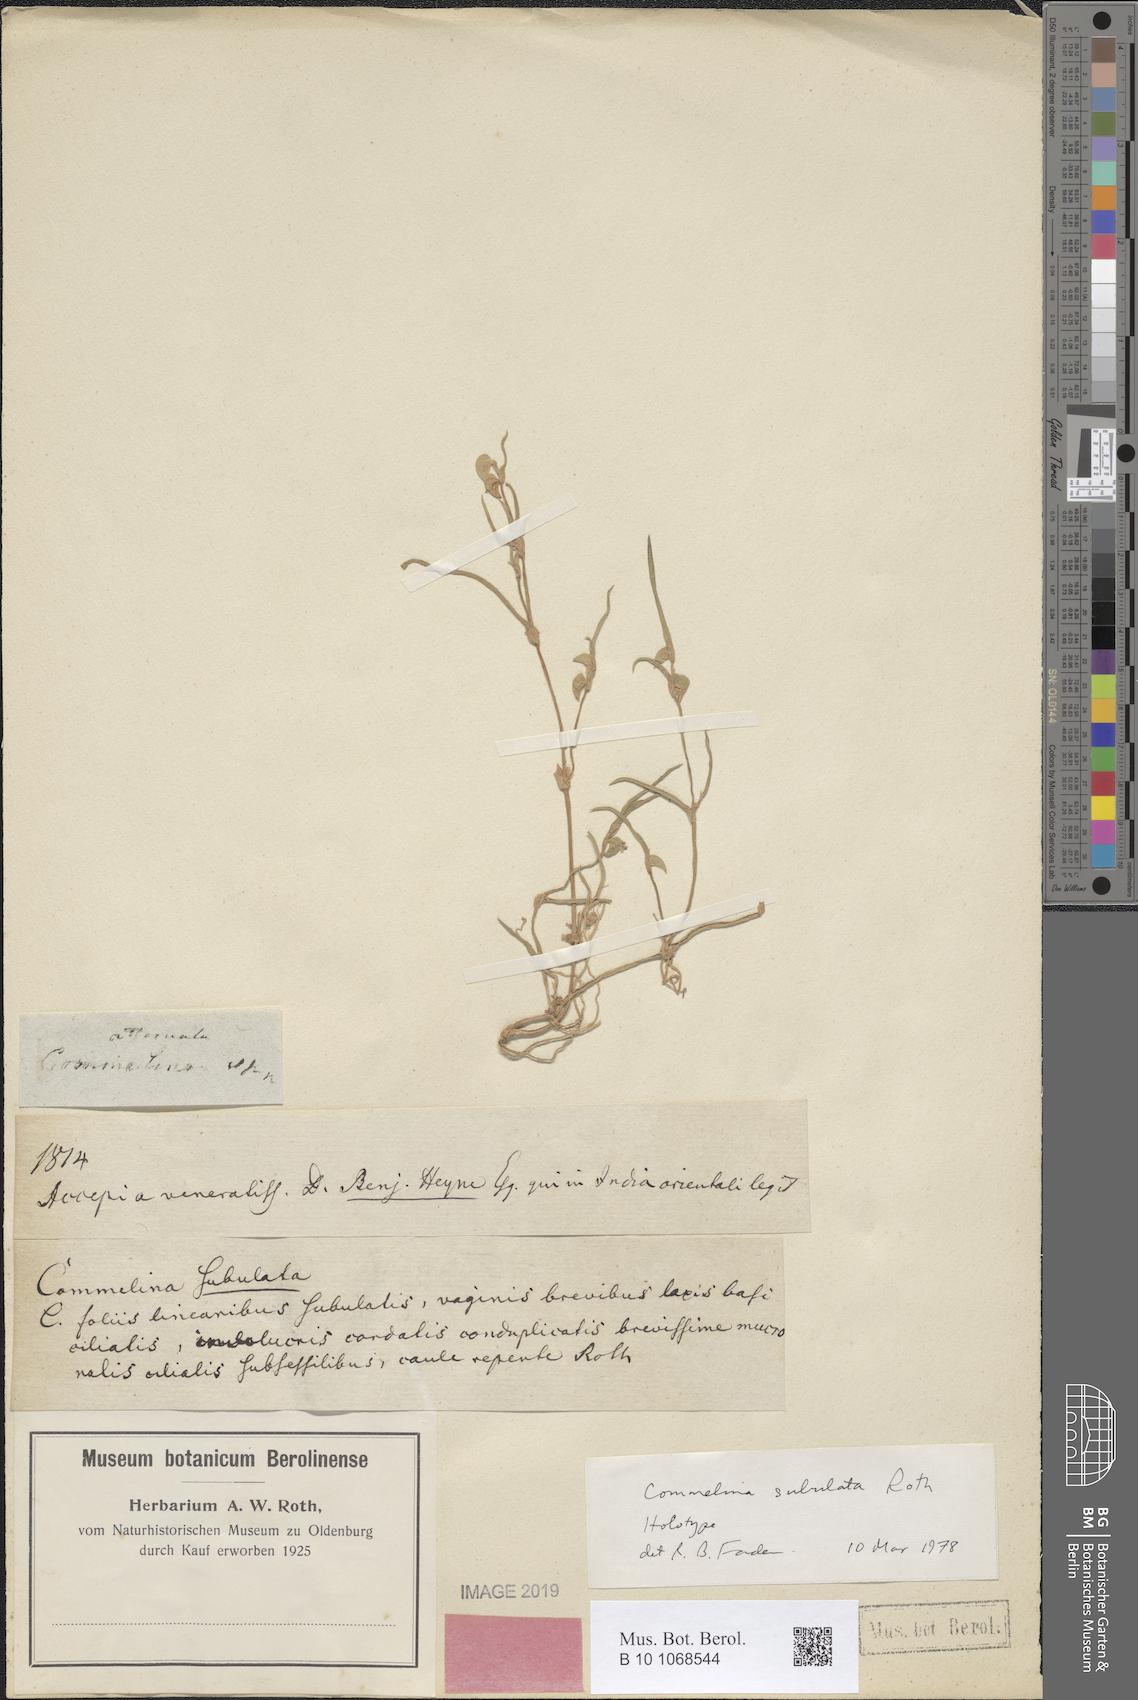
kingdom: Plantae
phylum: Tracheophyta
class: Liliopsida
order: Commelinales
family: Commelinaceae
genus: Commelina
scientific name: Commelina subulata
